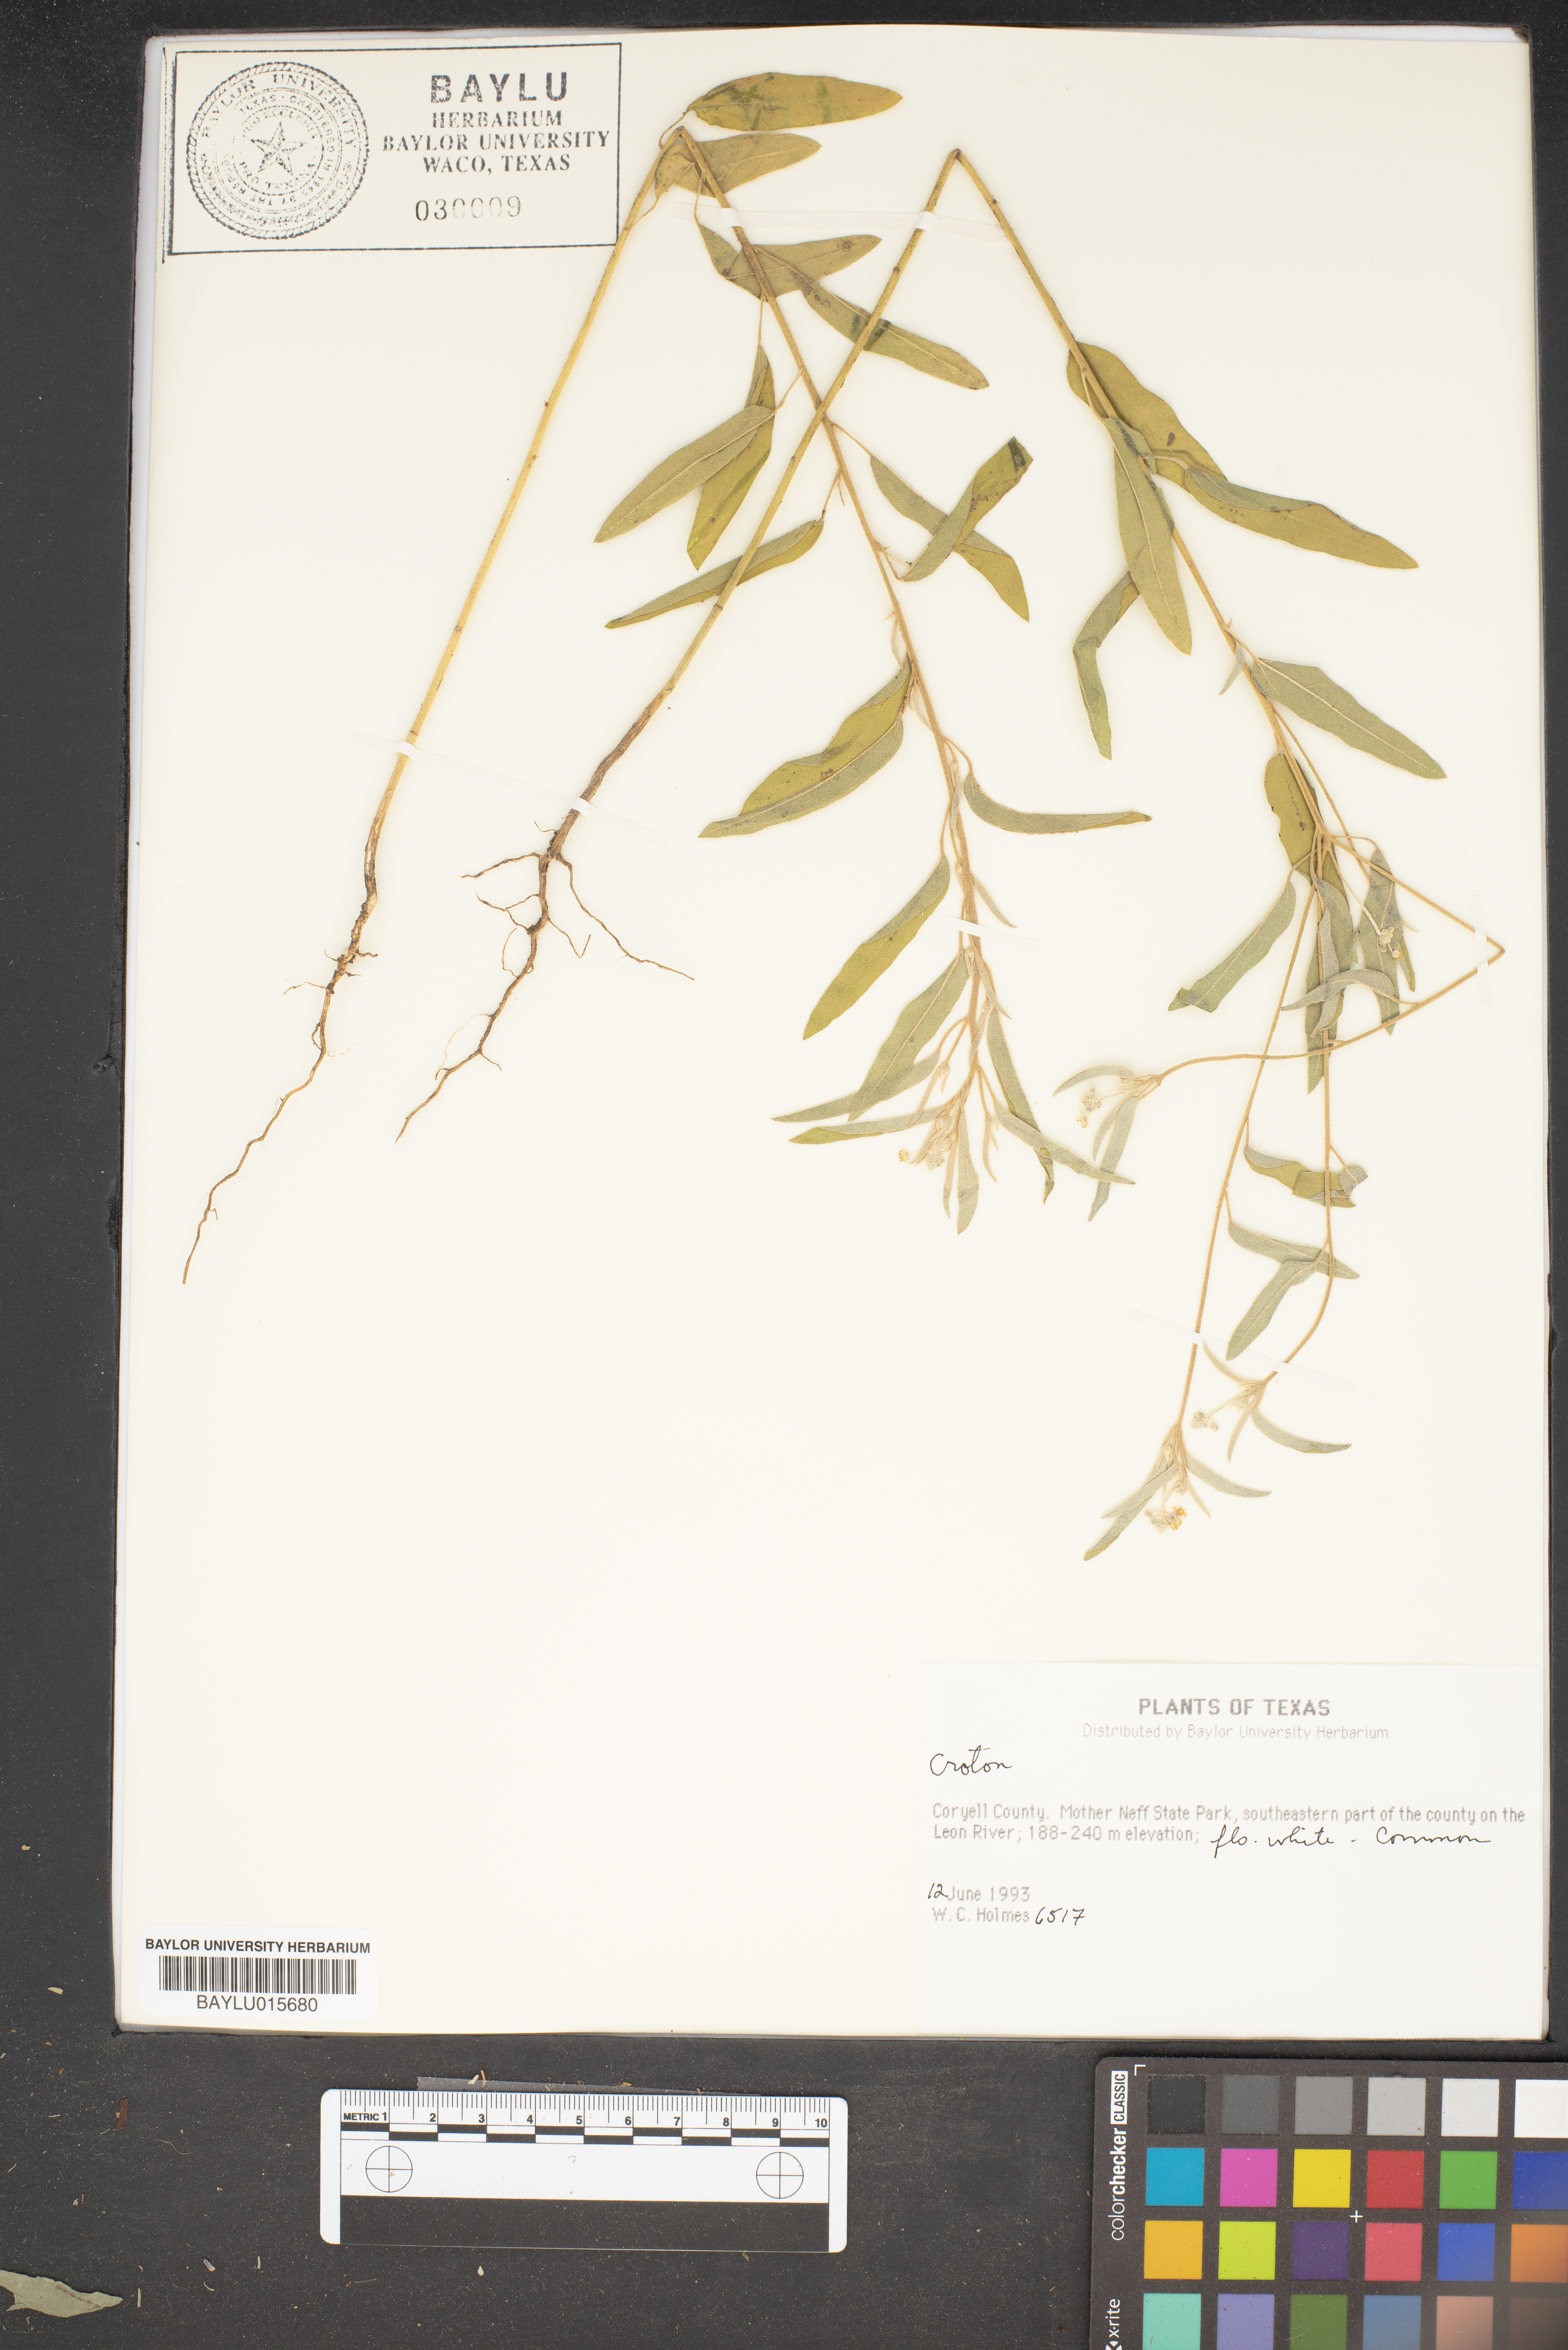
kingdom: Plantae
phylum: Tracheophyta
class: Magnoliopsida
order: Malpighiales
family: Euphorbiaceae
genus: Croton
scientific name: Croton
